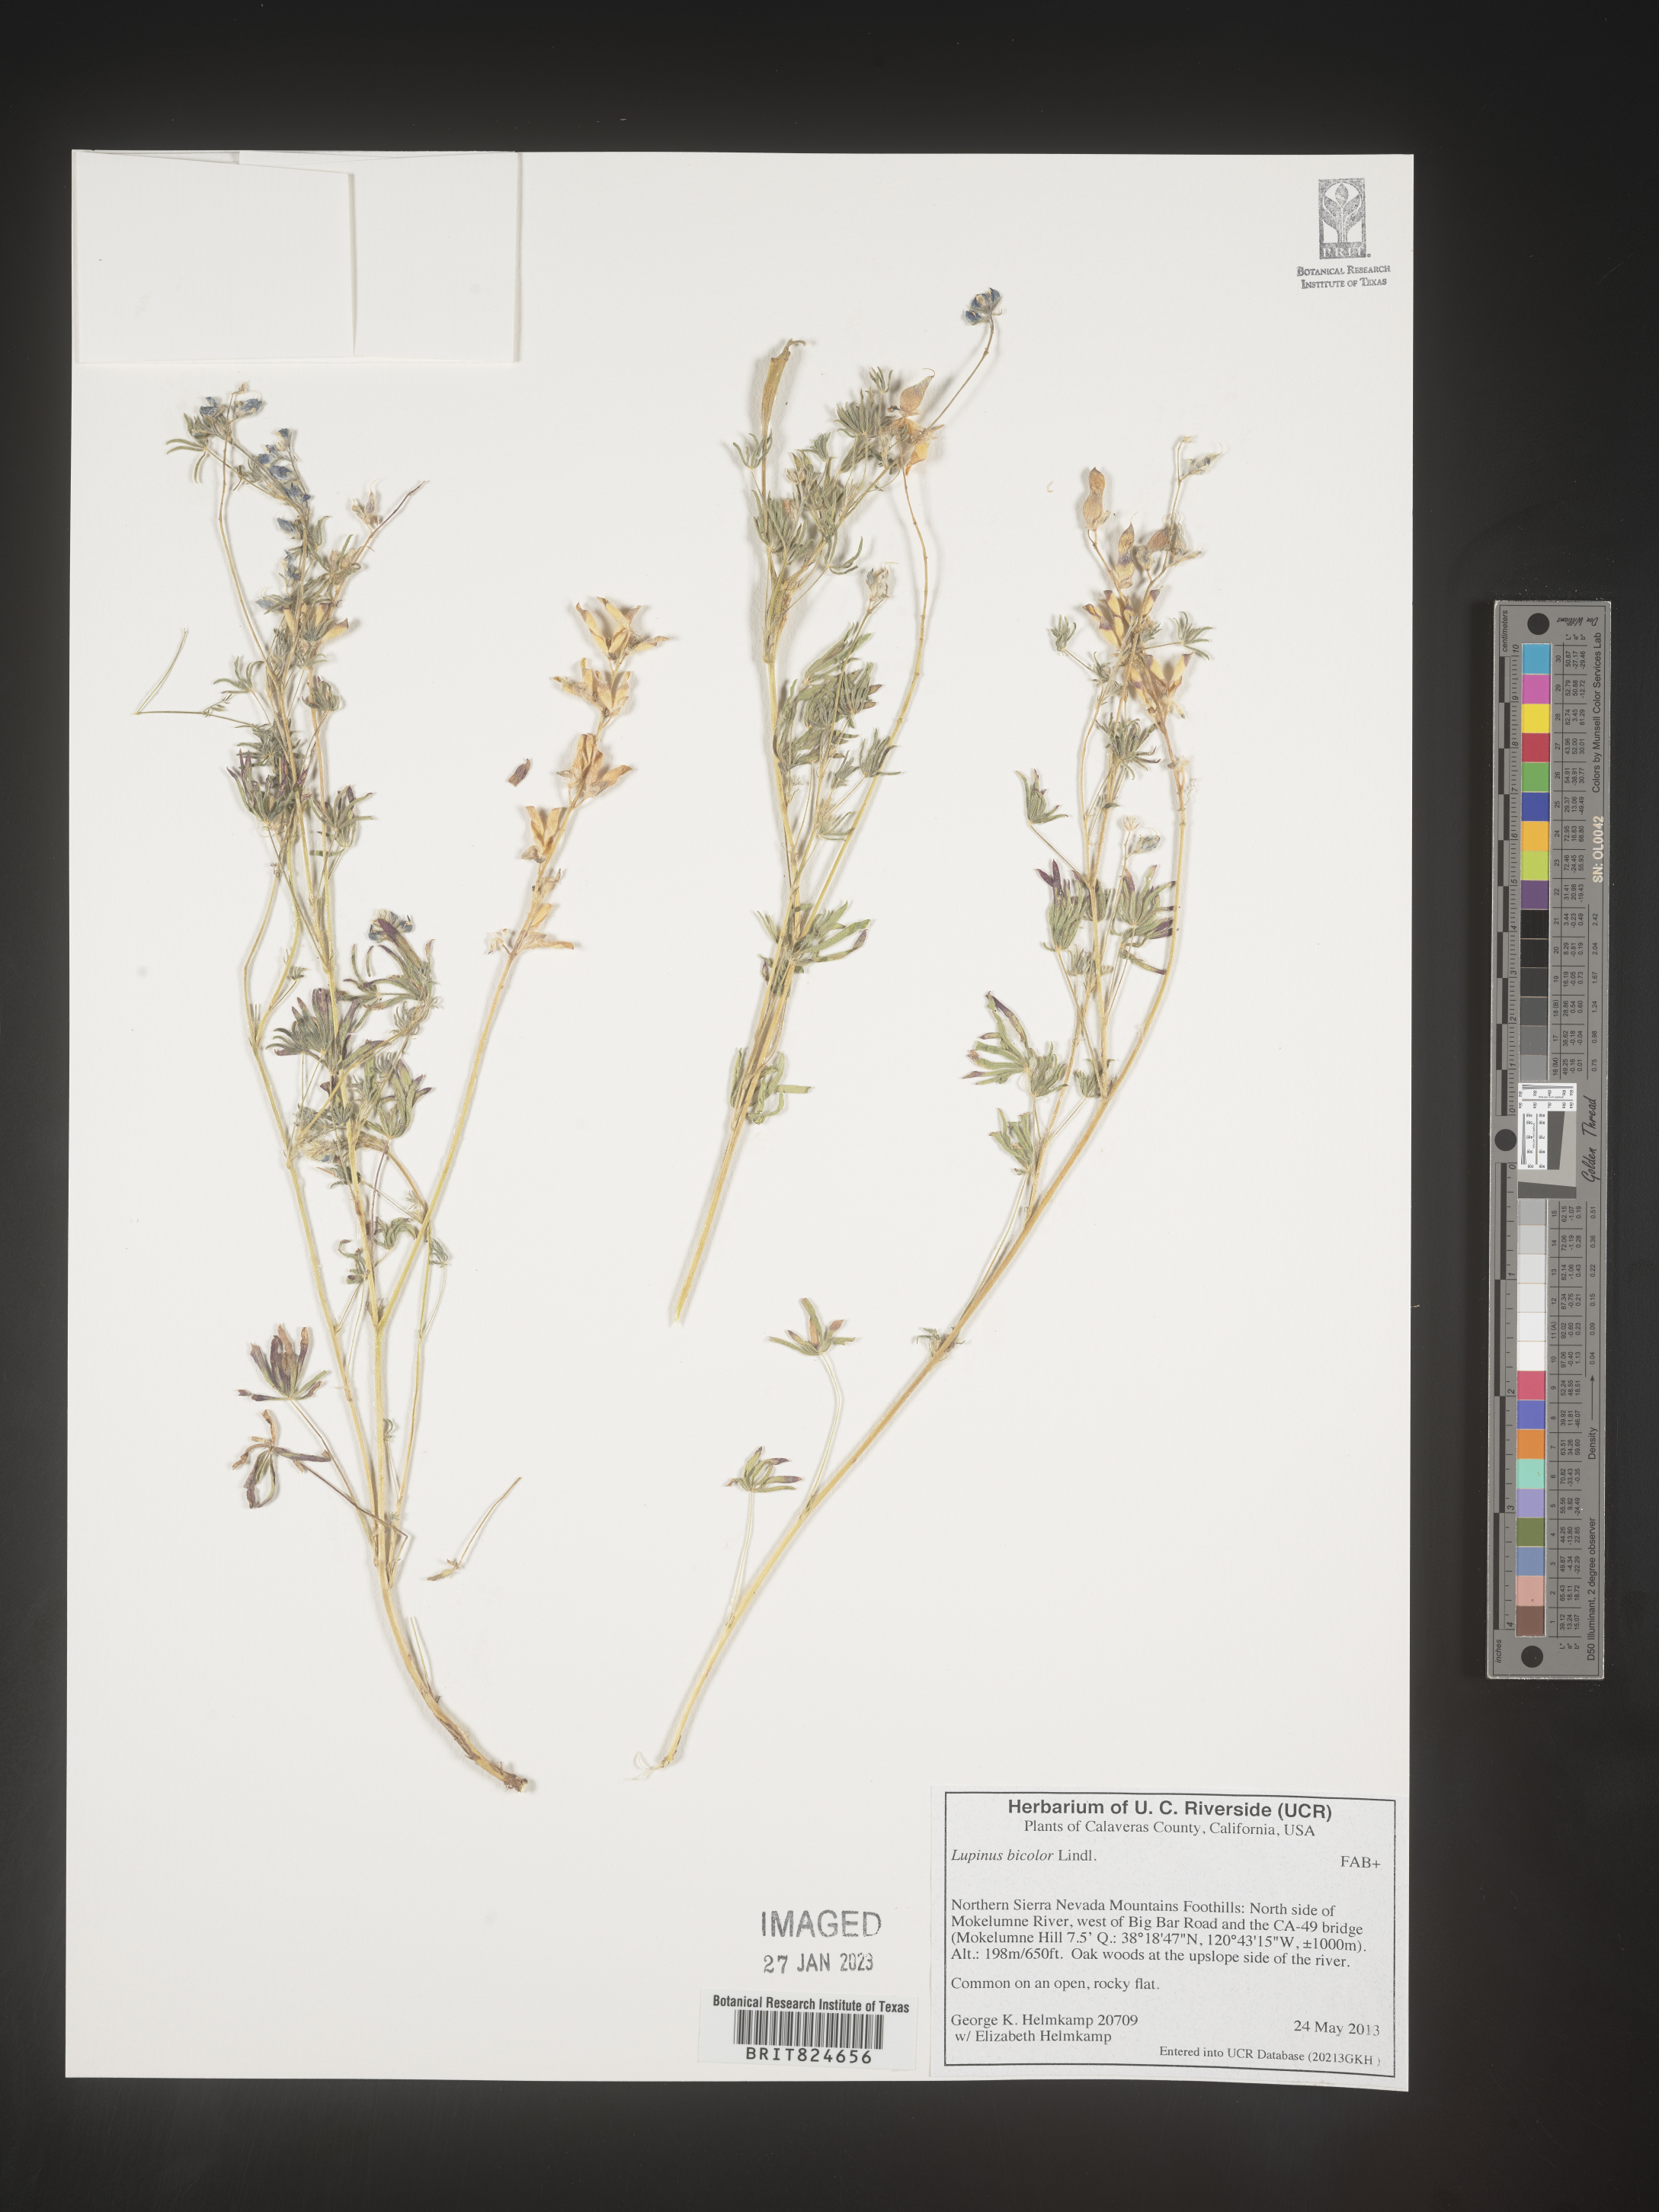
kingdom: Plantae
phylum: Tracheophyta
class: Magnoliopsida
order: Fabales
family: Fabaceae
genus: Lupinus
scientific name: Lupinus bicolor
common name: Miniature lupine
